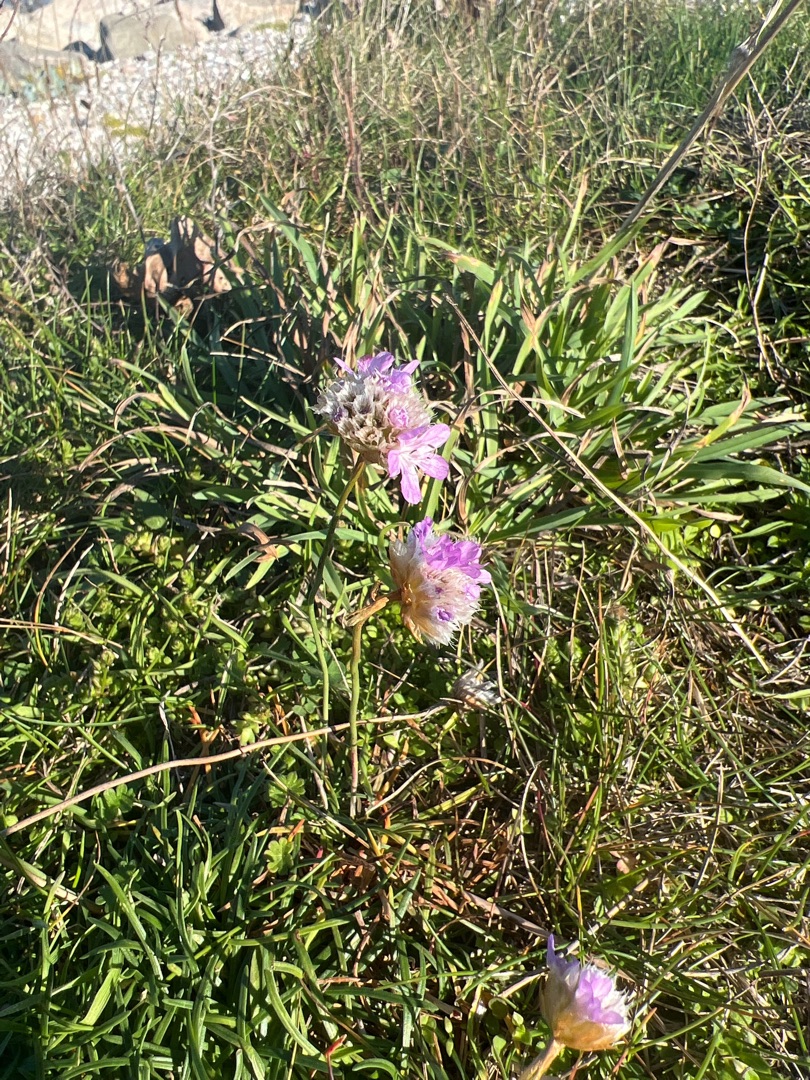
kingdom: Plantae
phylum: Tracheophyta
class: Magnoliopsida
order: Caryophyllales
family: Plumbaginaceae
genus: Armeria
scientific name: Armeria maritima
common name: Vej-engelskgræs
